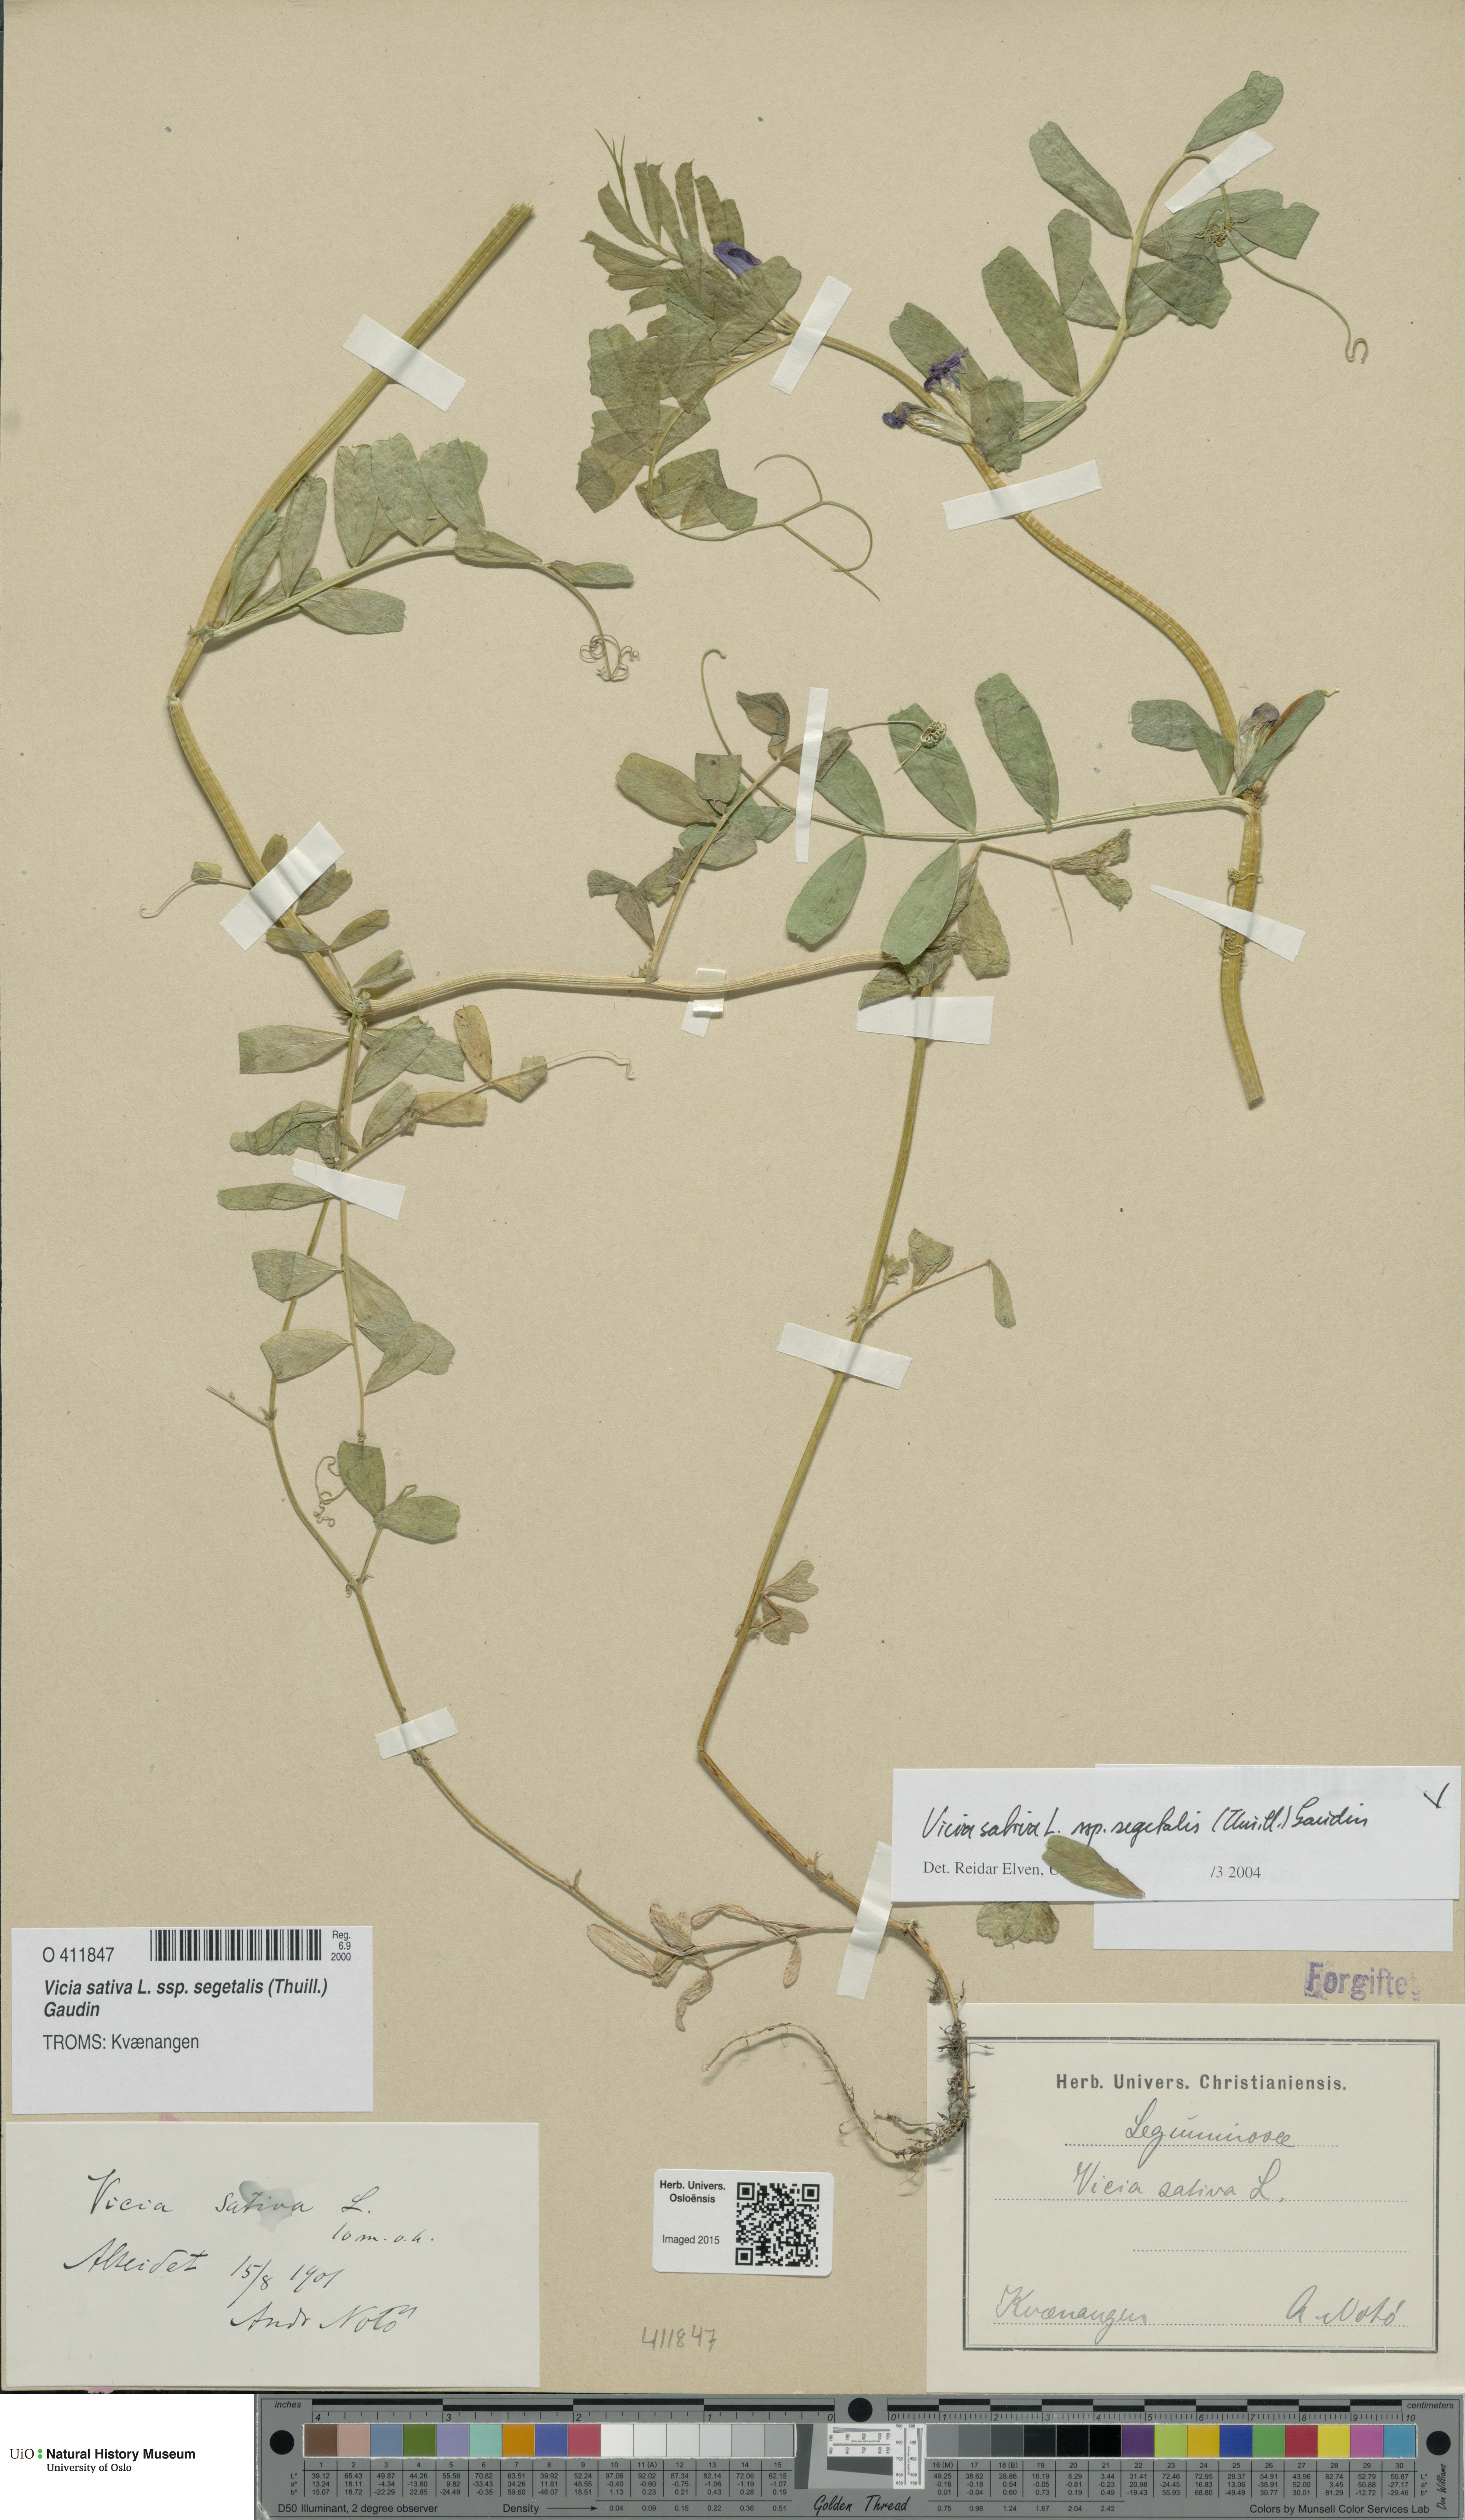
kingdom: Plantae
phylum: Tracheophyta
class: Magnoliopsida
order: Fabales
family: Fabaceae
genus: Vicia
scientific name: Vicia sativa
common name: Garden vetch
